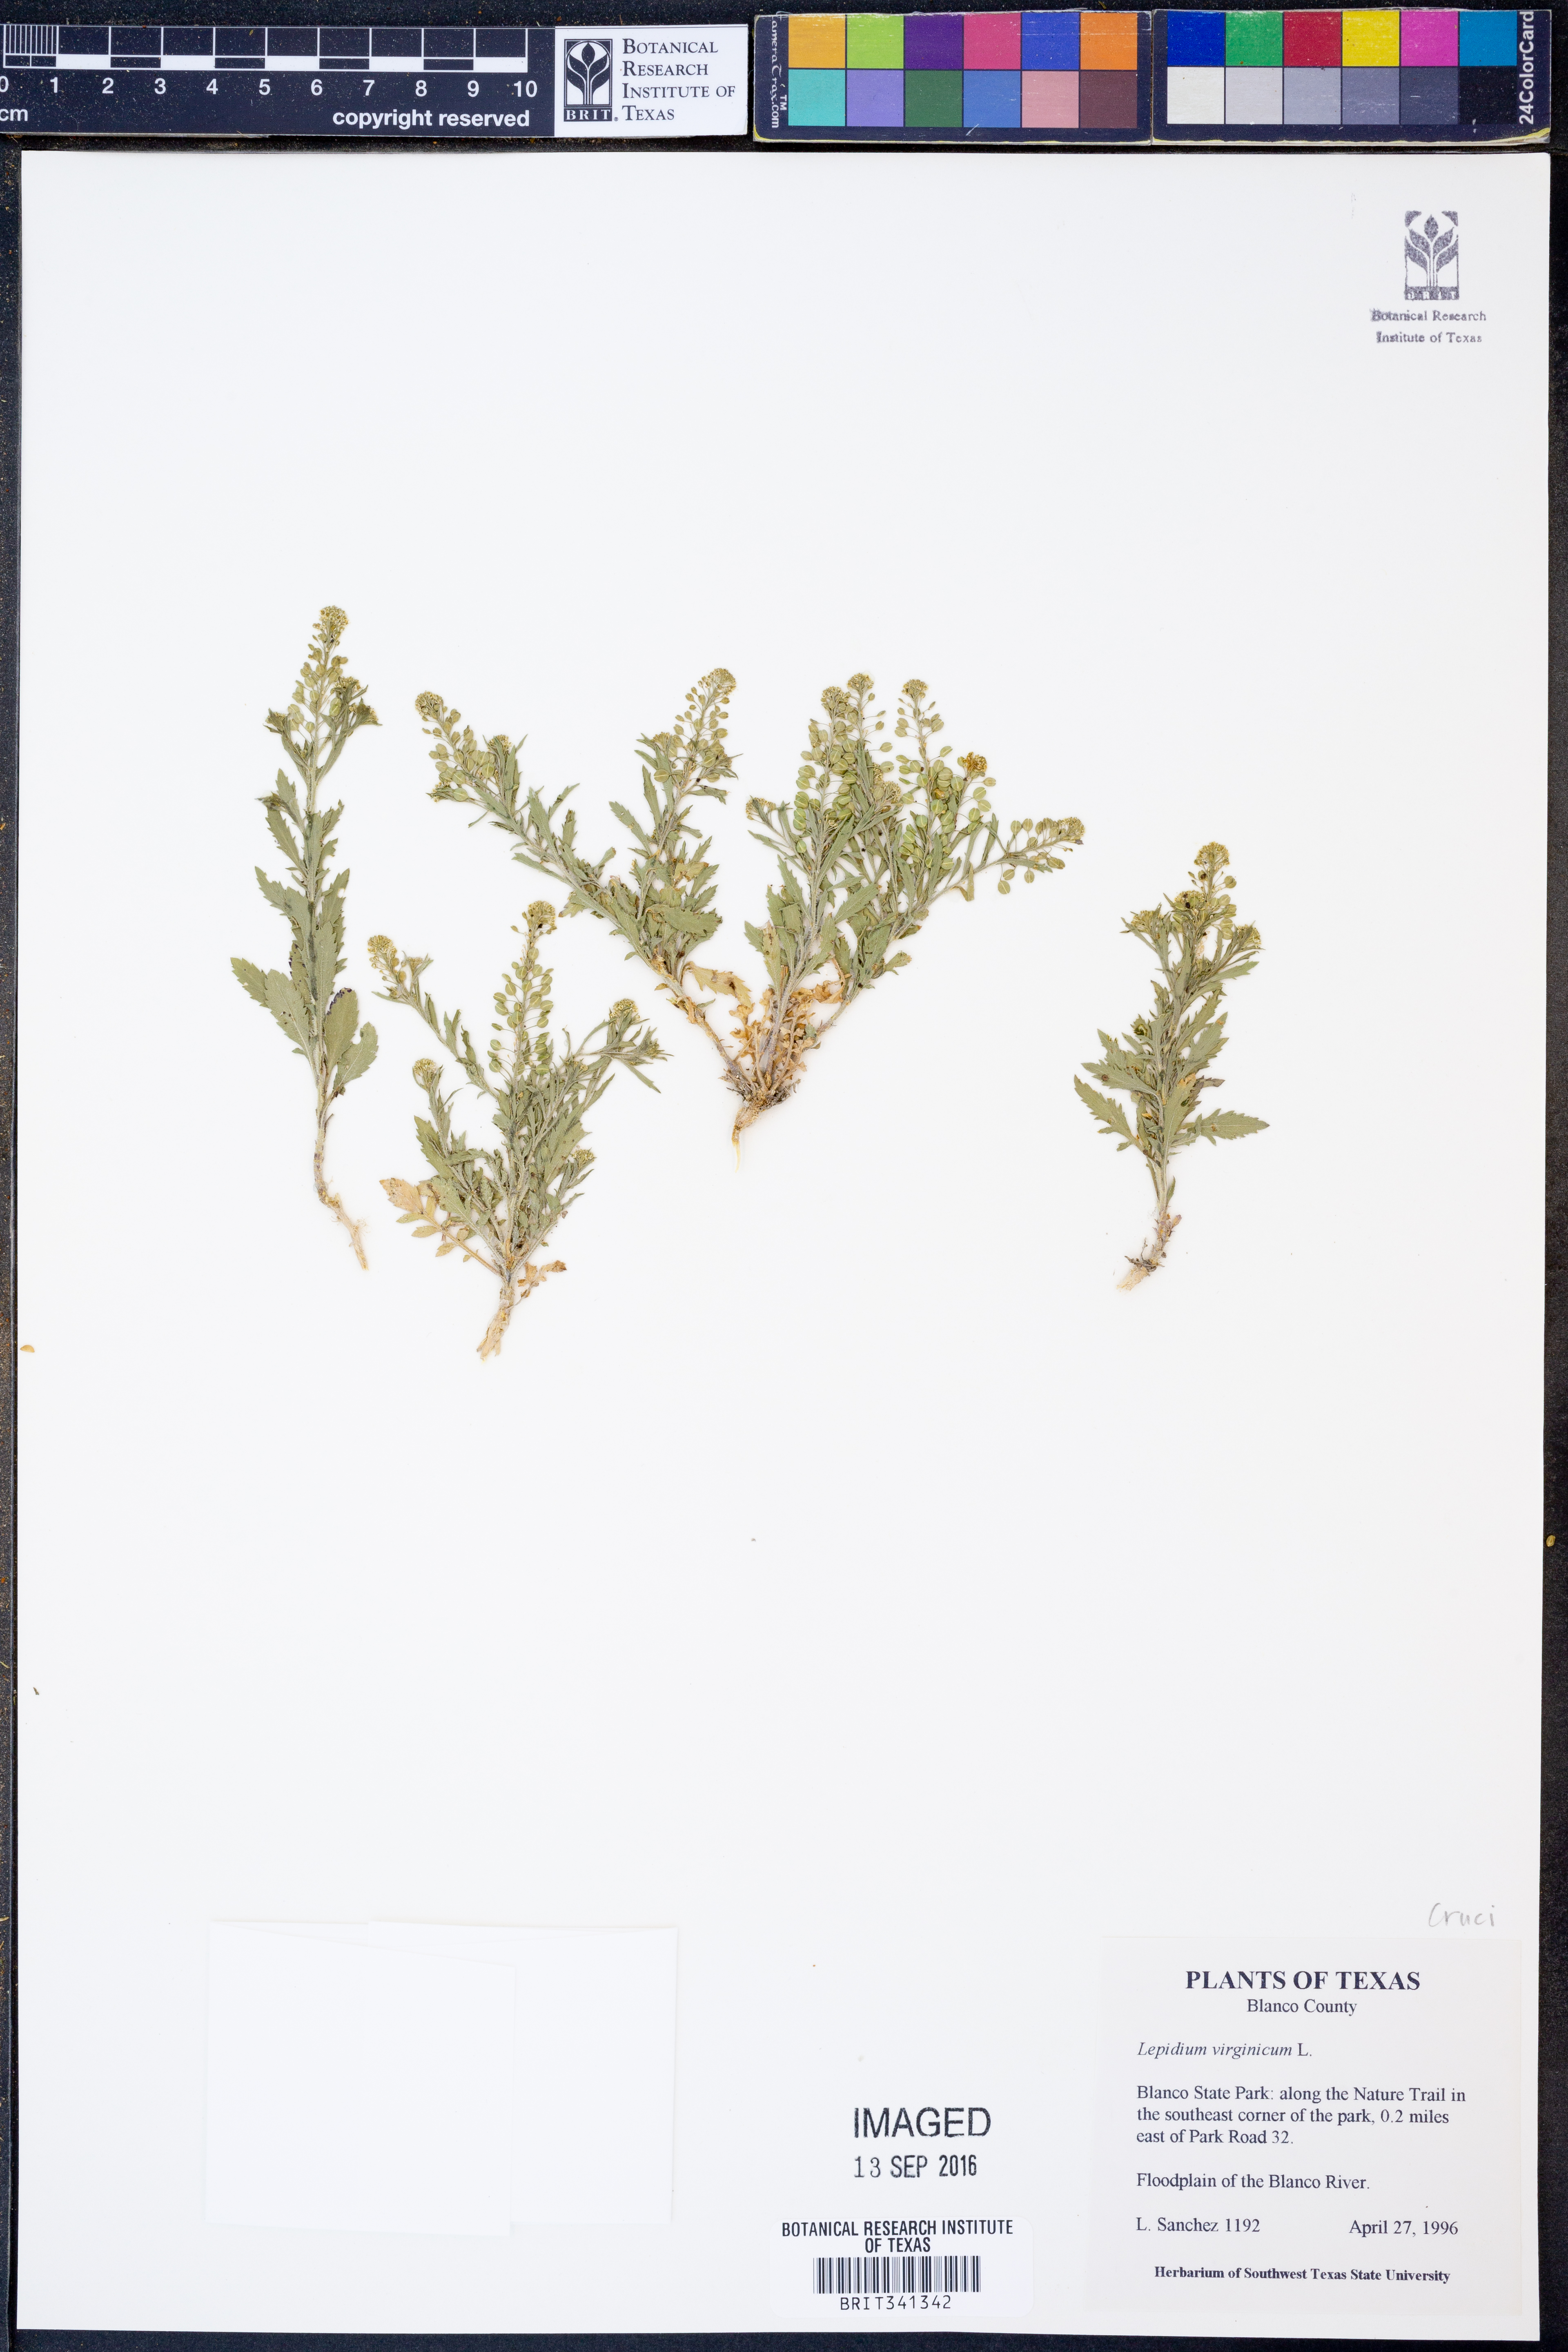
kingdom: Plantae
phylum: Tracheophyta
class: Magnoliopsida
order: Brassicales
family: Brassicaceae
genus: Lepidium
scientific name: Lepidium virginicum
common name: Least pepperwort
